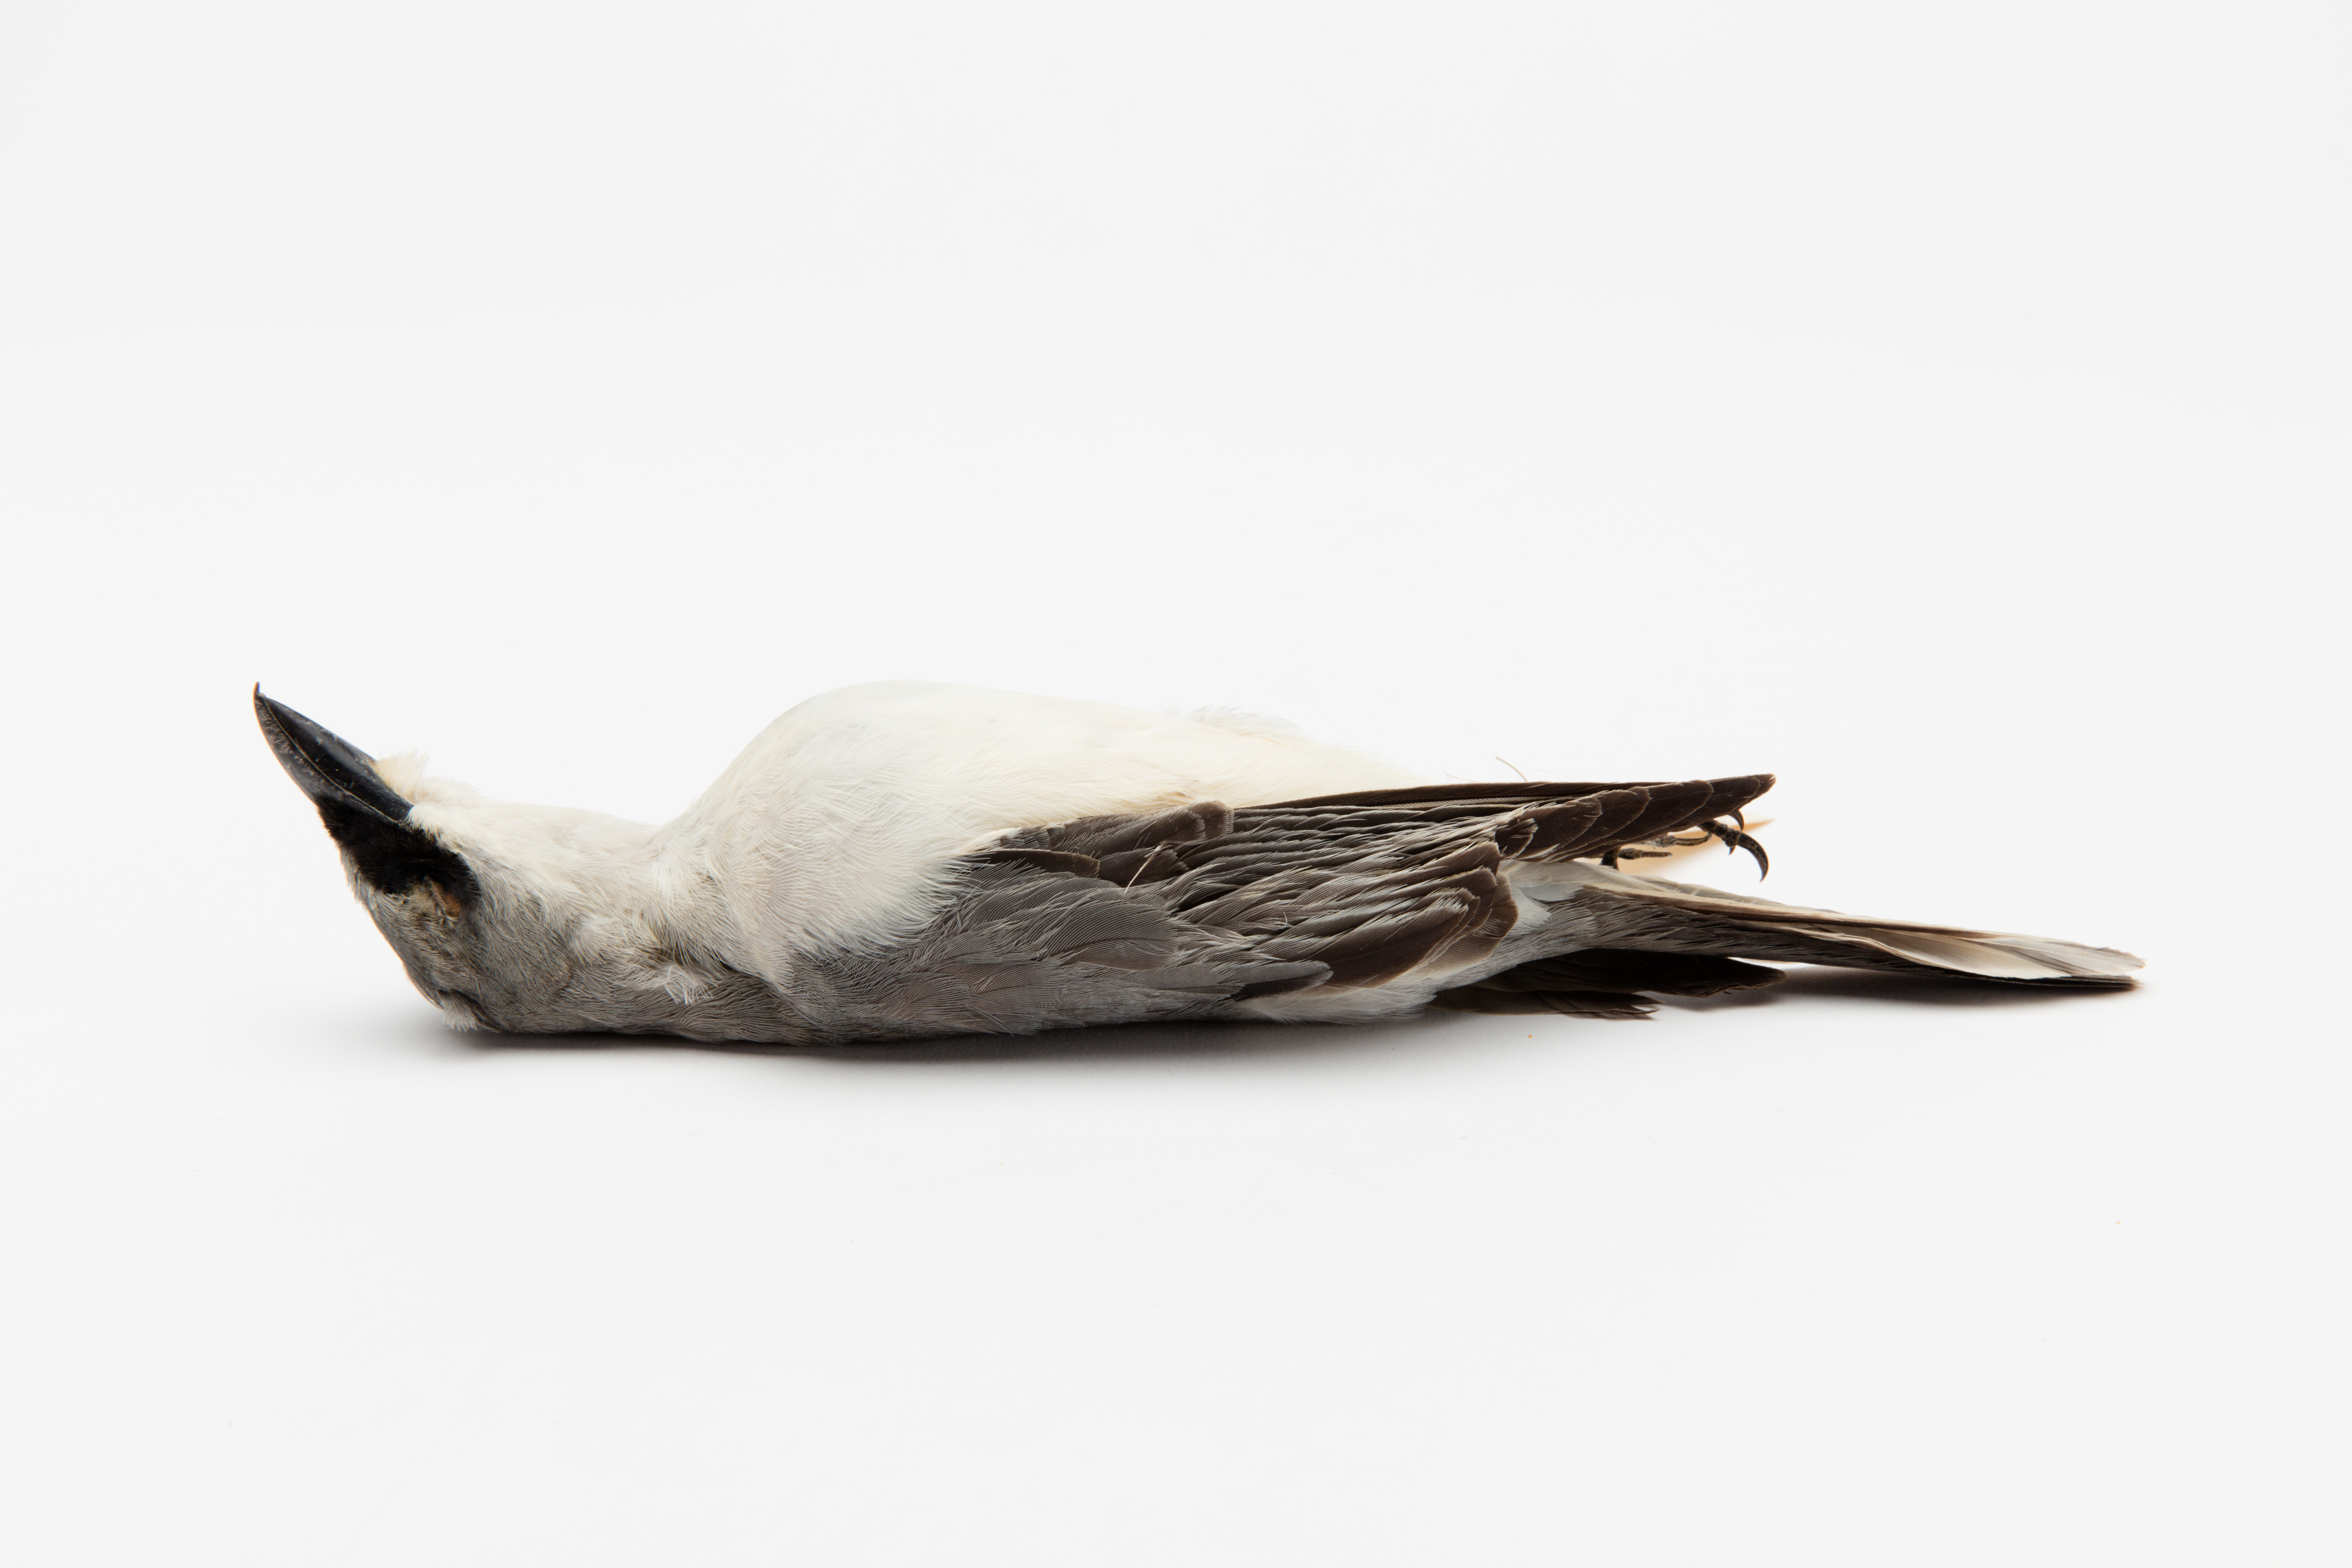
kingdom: Animalia
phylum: Chordata
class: Aves
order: Passeriformes
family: Campephagidae
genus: Coracina
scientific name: Coracina papuensis
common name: White-bellied cuckooshrike
